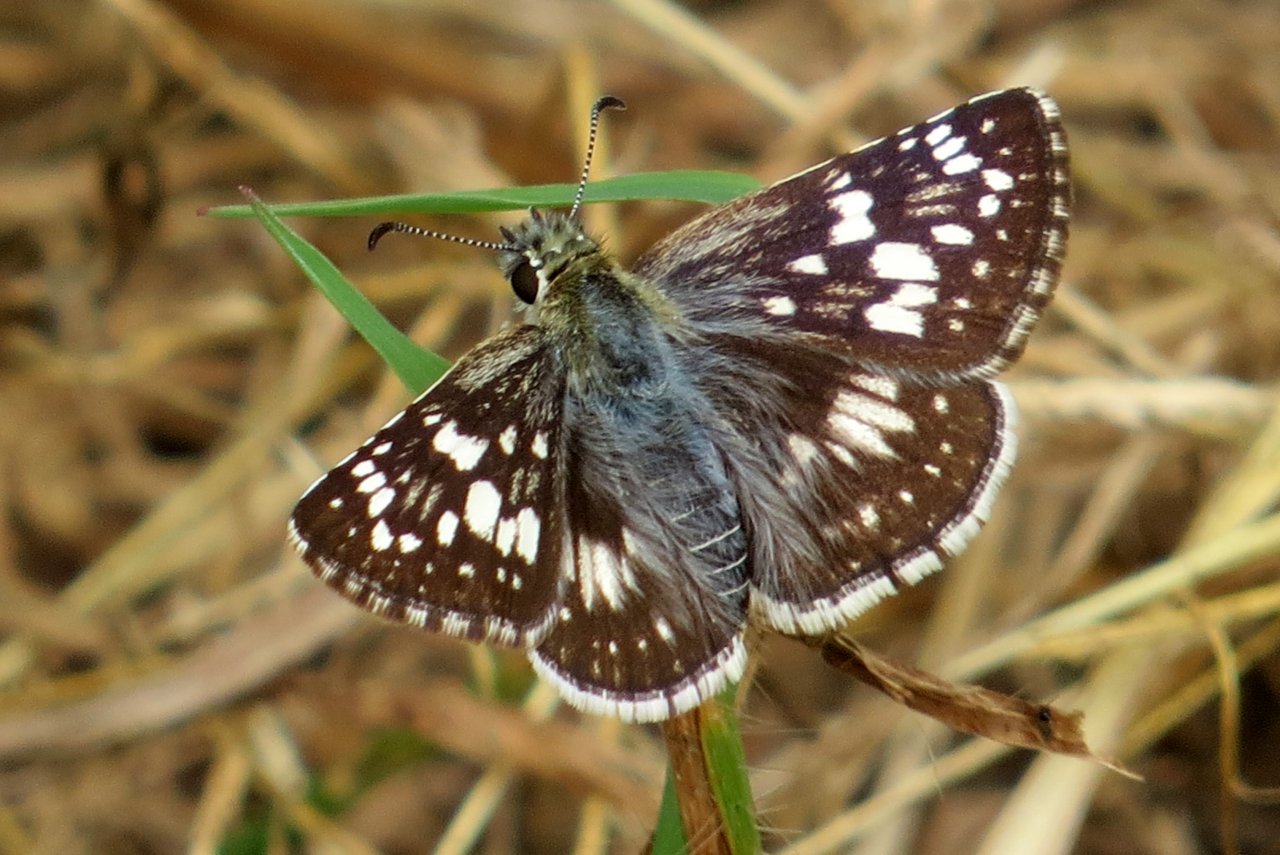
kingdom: Animalia
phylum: Arthropoda
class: Insecta
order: Lepidoptera
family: Hesperiidae
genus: Pyrgus
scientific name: Pyrgus communis
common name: Common Checkered-Skipper
